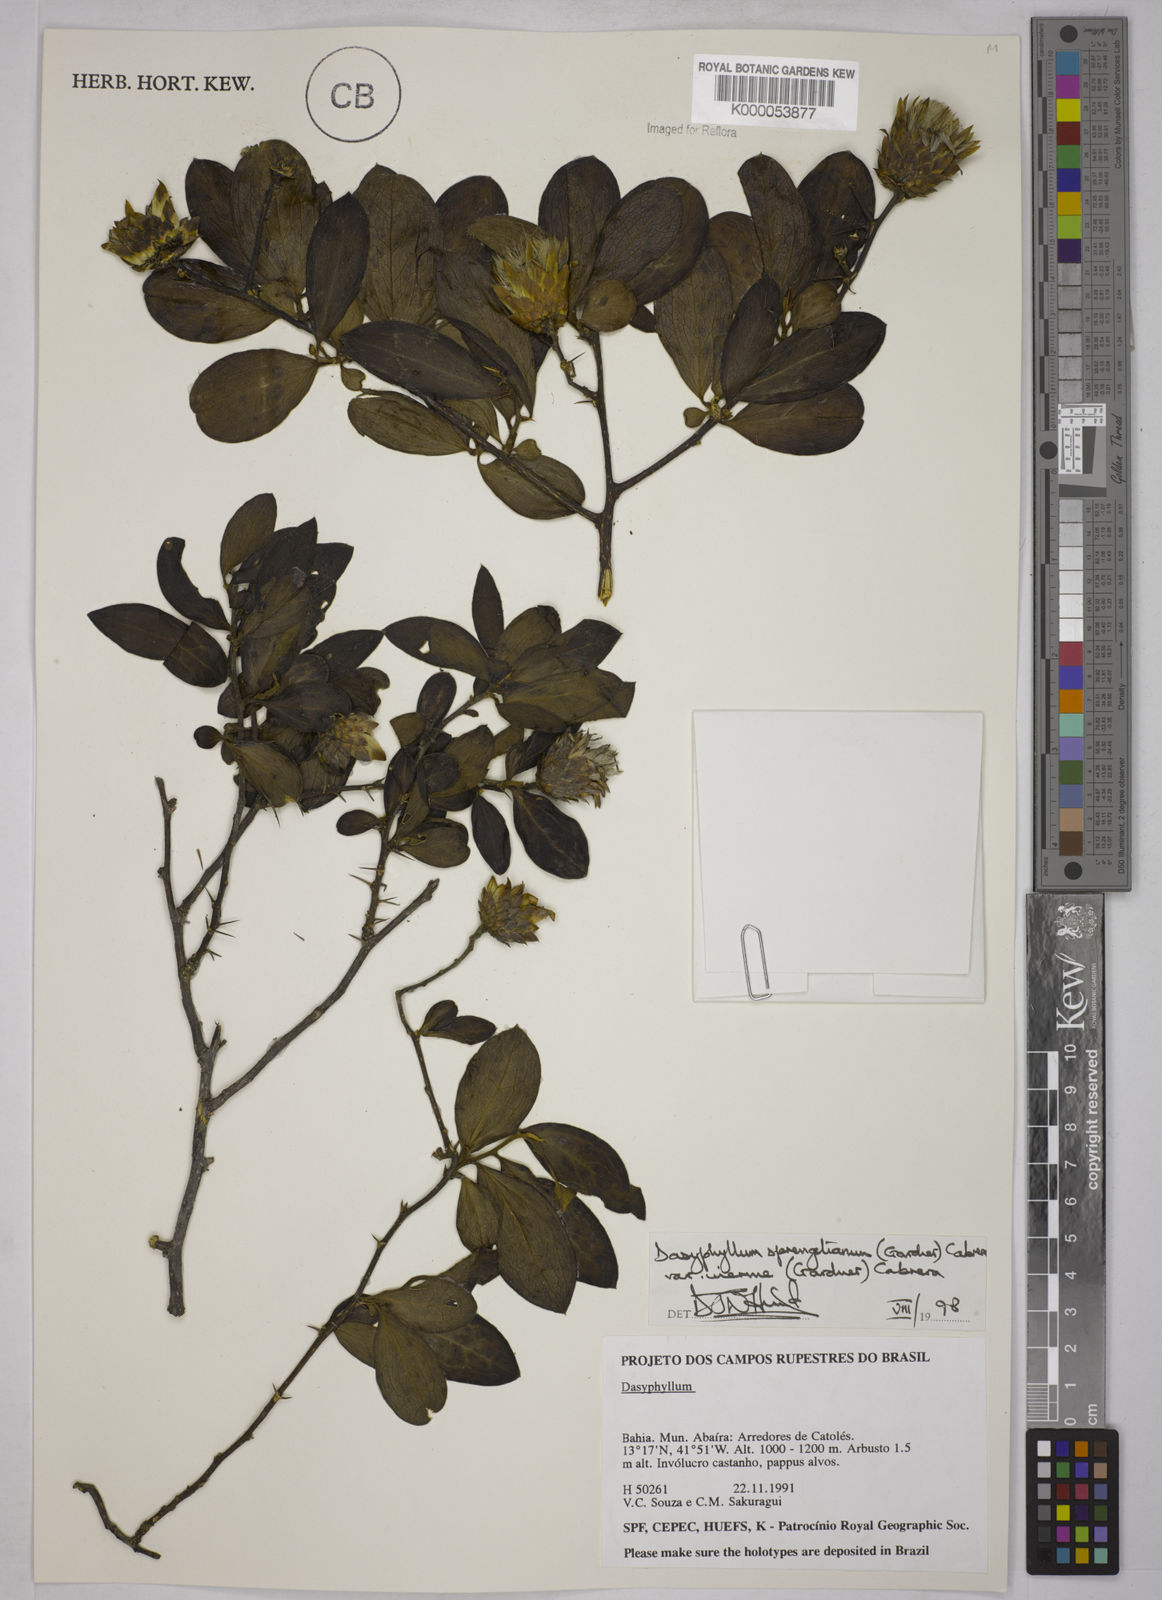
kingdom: Plantae
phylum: Tracheophyta
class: Magnoliopsida
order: Asterales
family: Asteraceae
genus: Dasyphyllum
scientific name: Dasyphyllum sprengelianum
